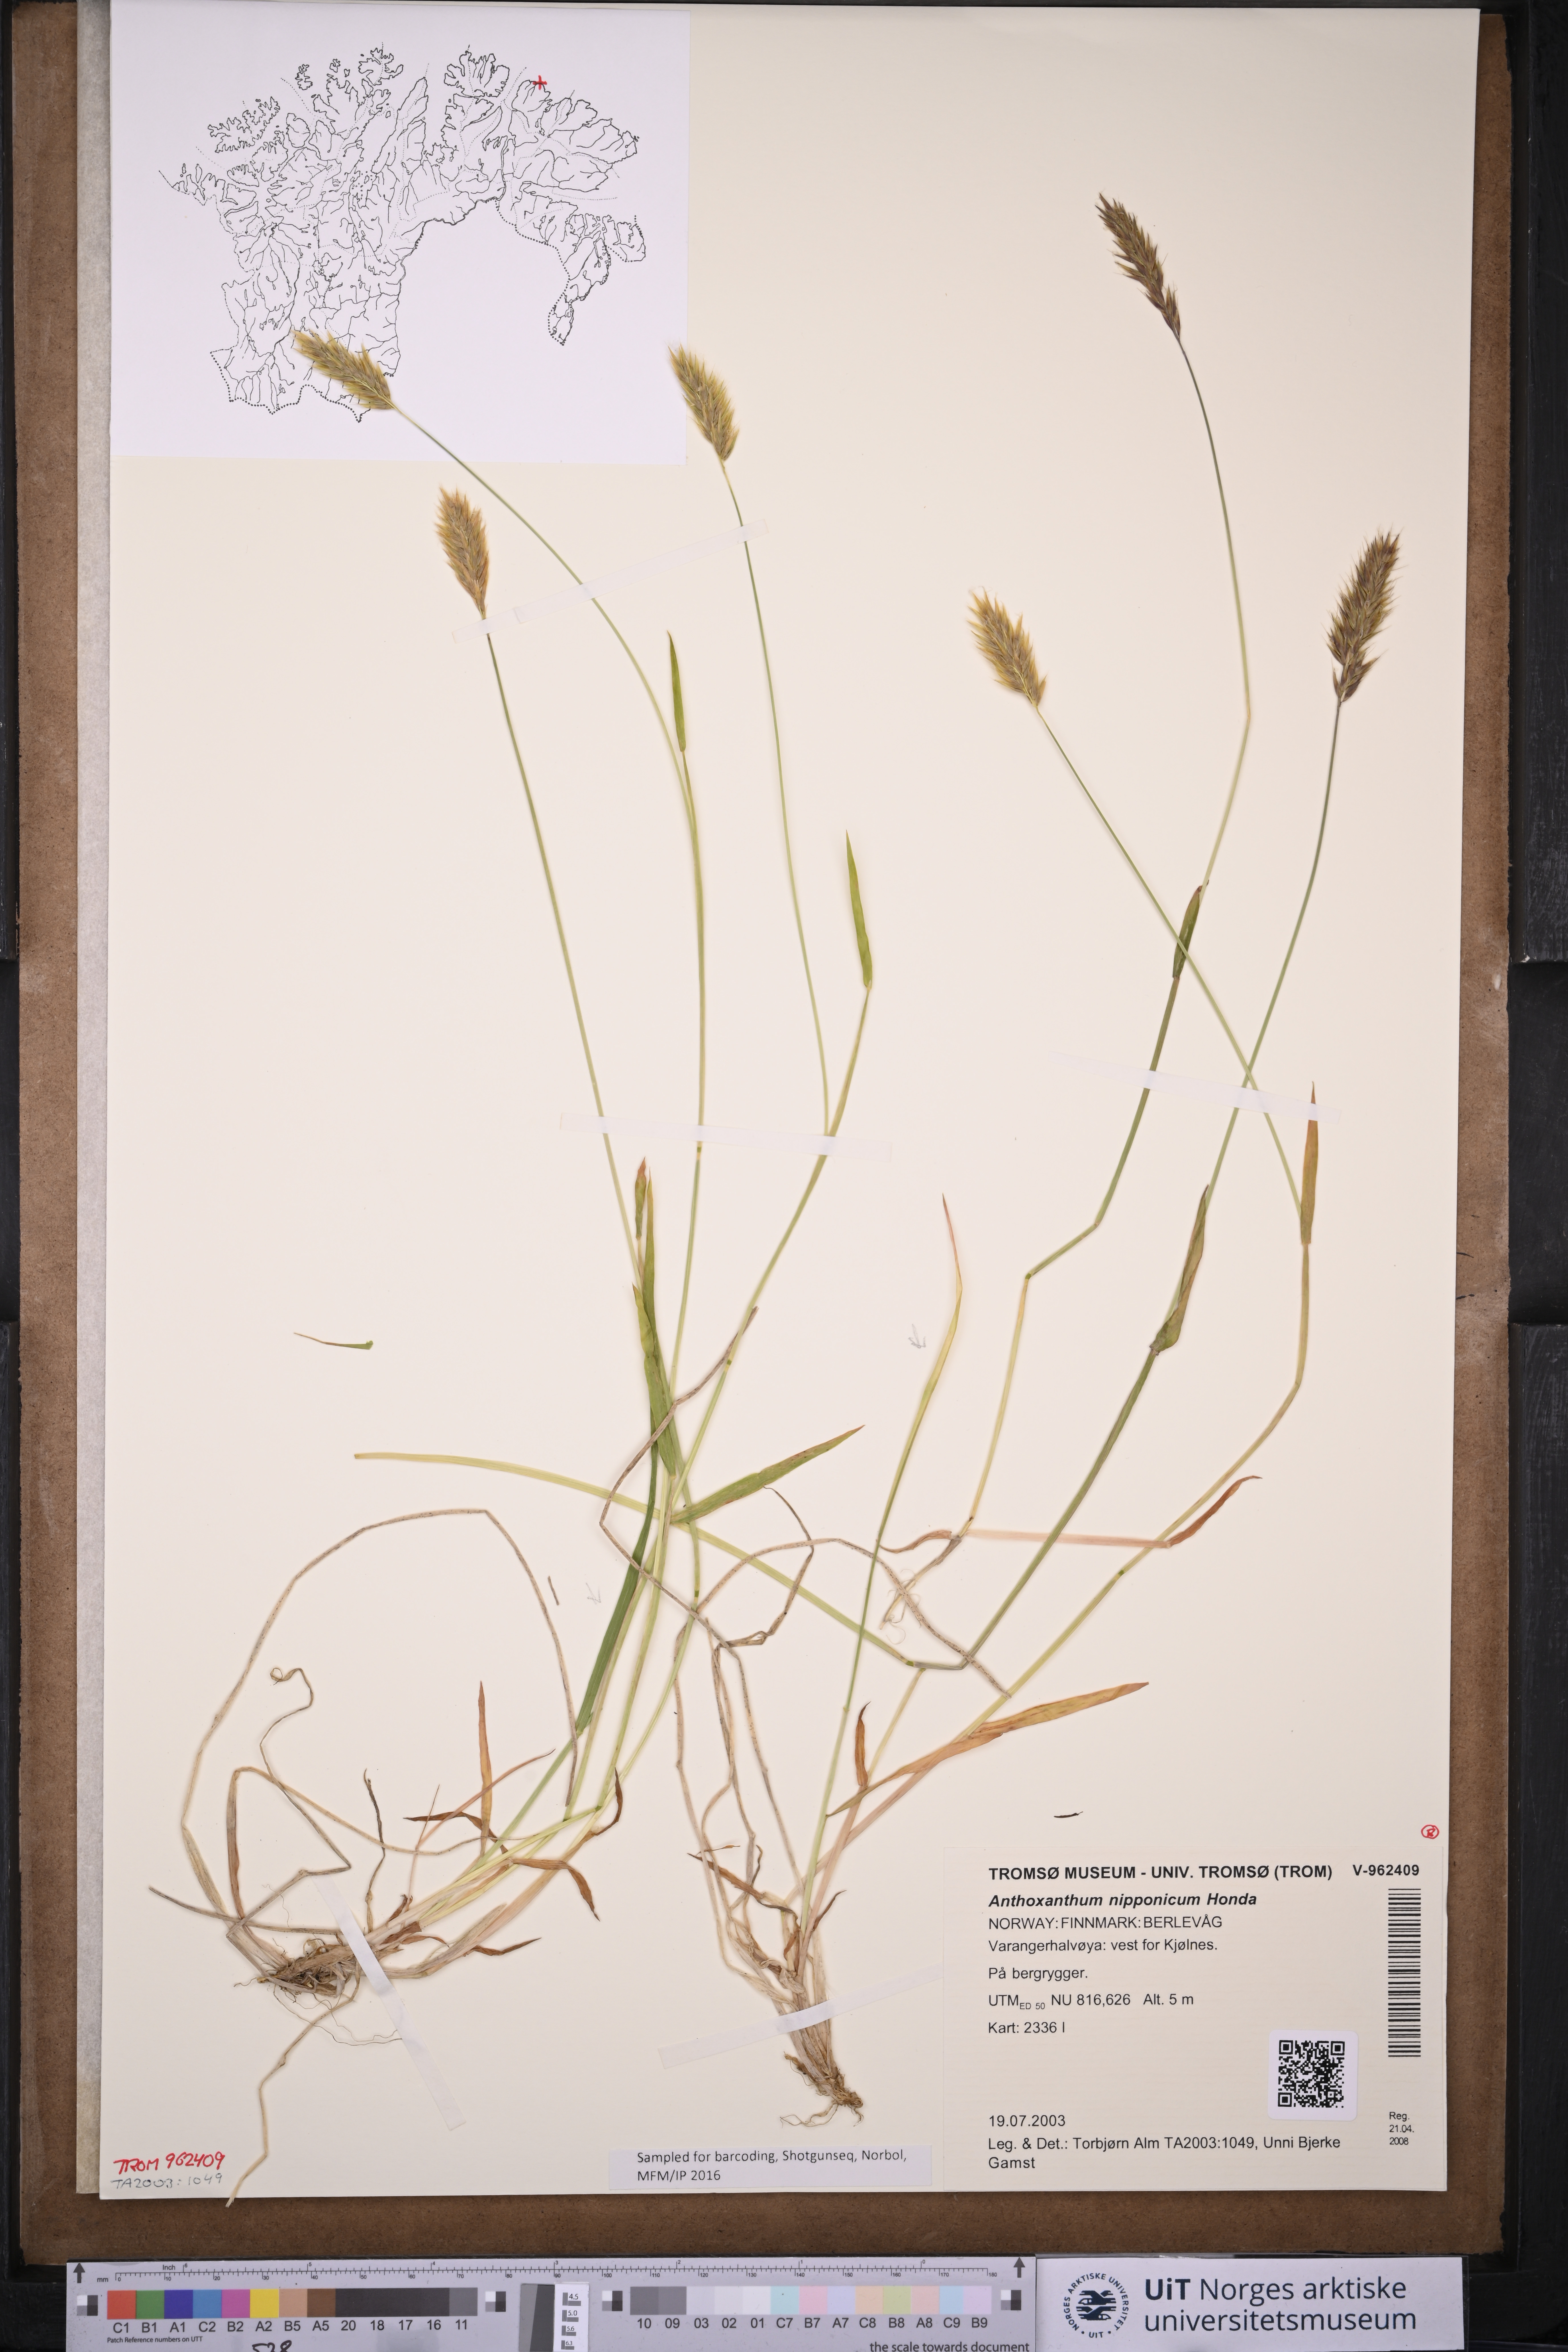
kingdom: Plantae
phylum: Tracheophyta
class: Liliopsida
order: Poales
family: Poaceae
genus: Anthoxanthum
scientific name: Anthoxanthum nipponicum
